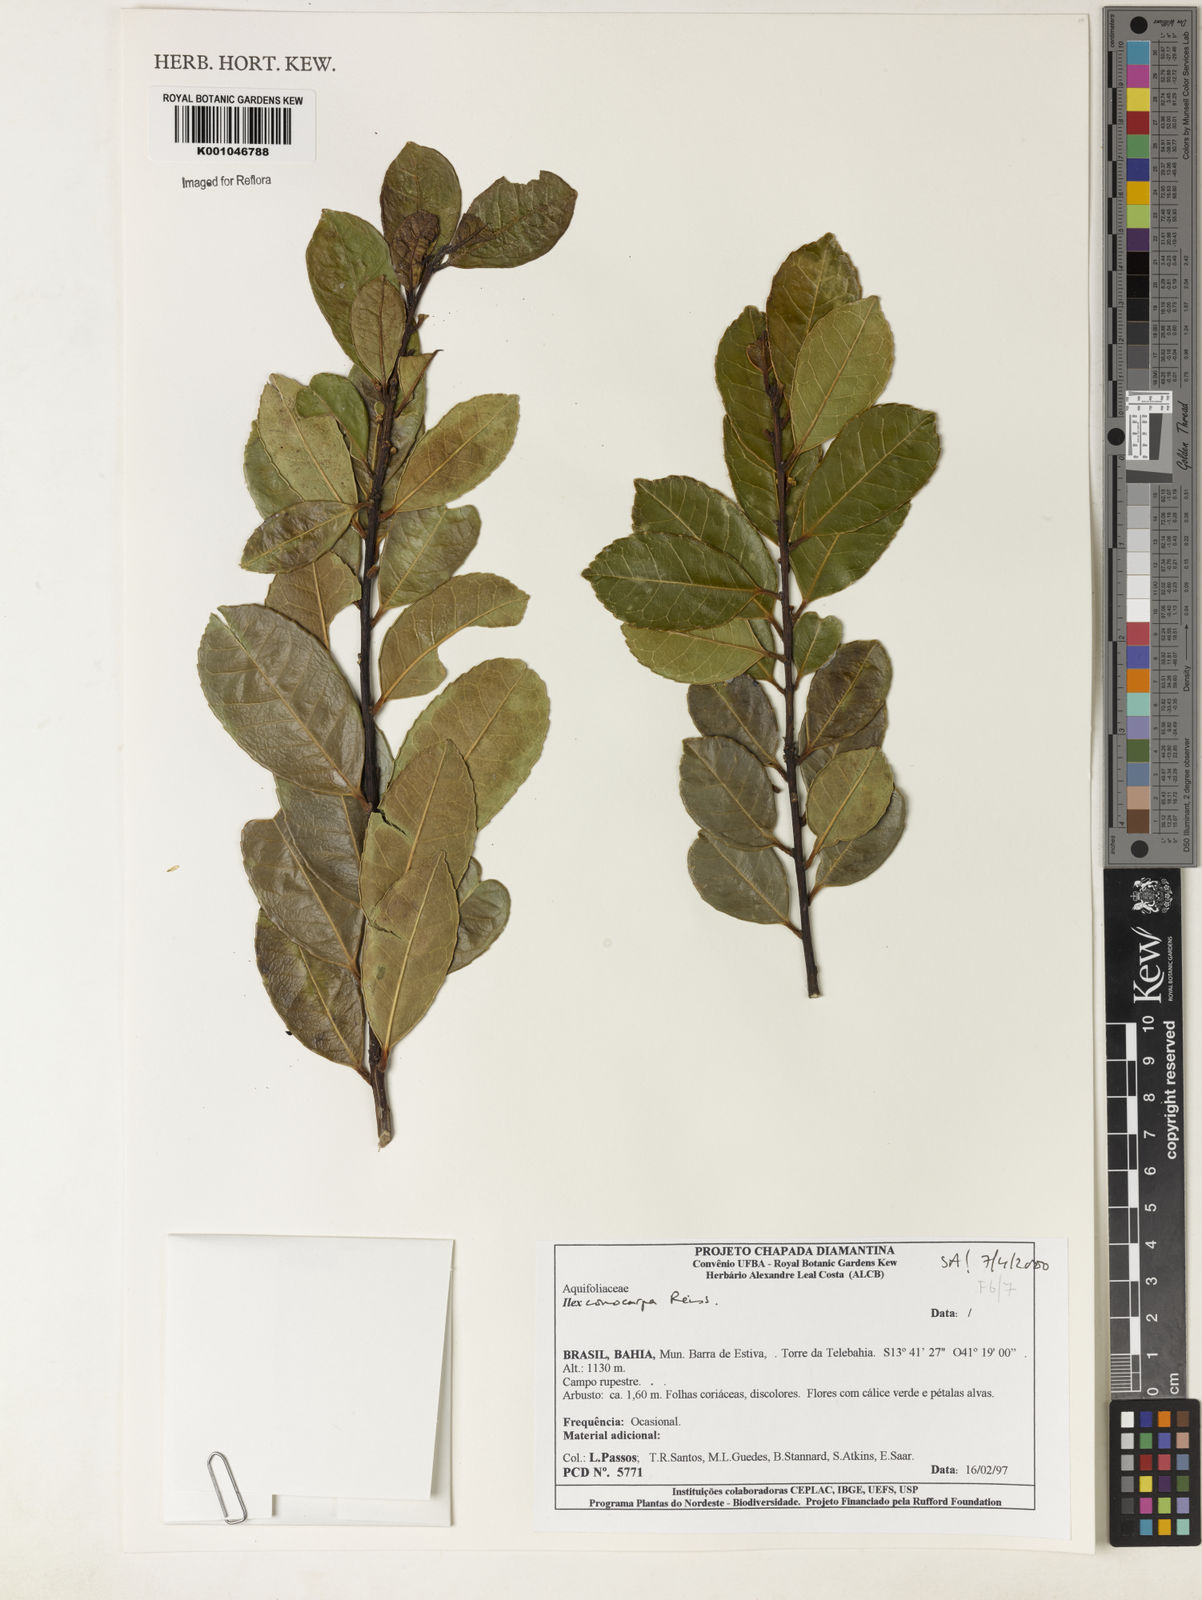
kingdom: Plantae
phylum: Tracheophyta
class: Magnoliopsida
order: Aquifoliales
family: Aquifoliaceae
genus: Ilex
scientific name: Ilex conocarpa
